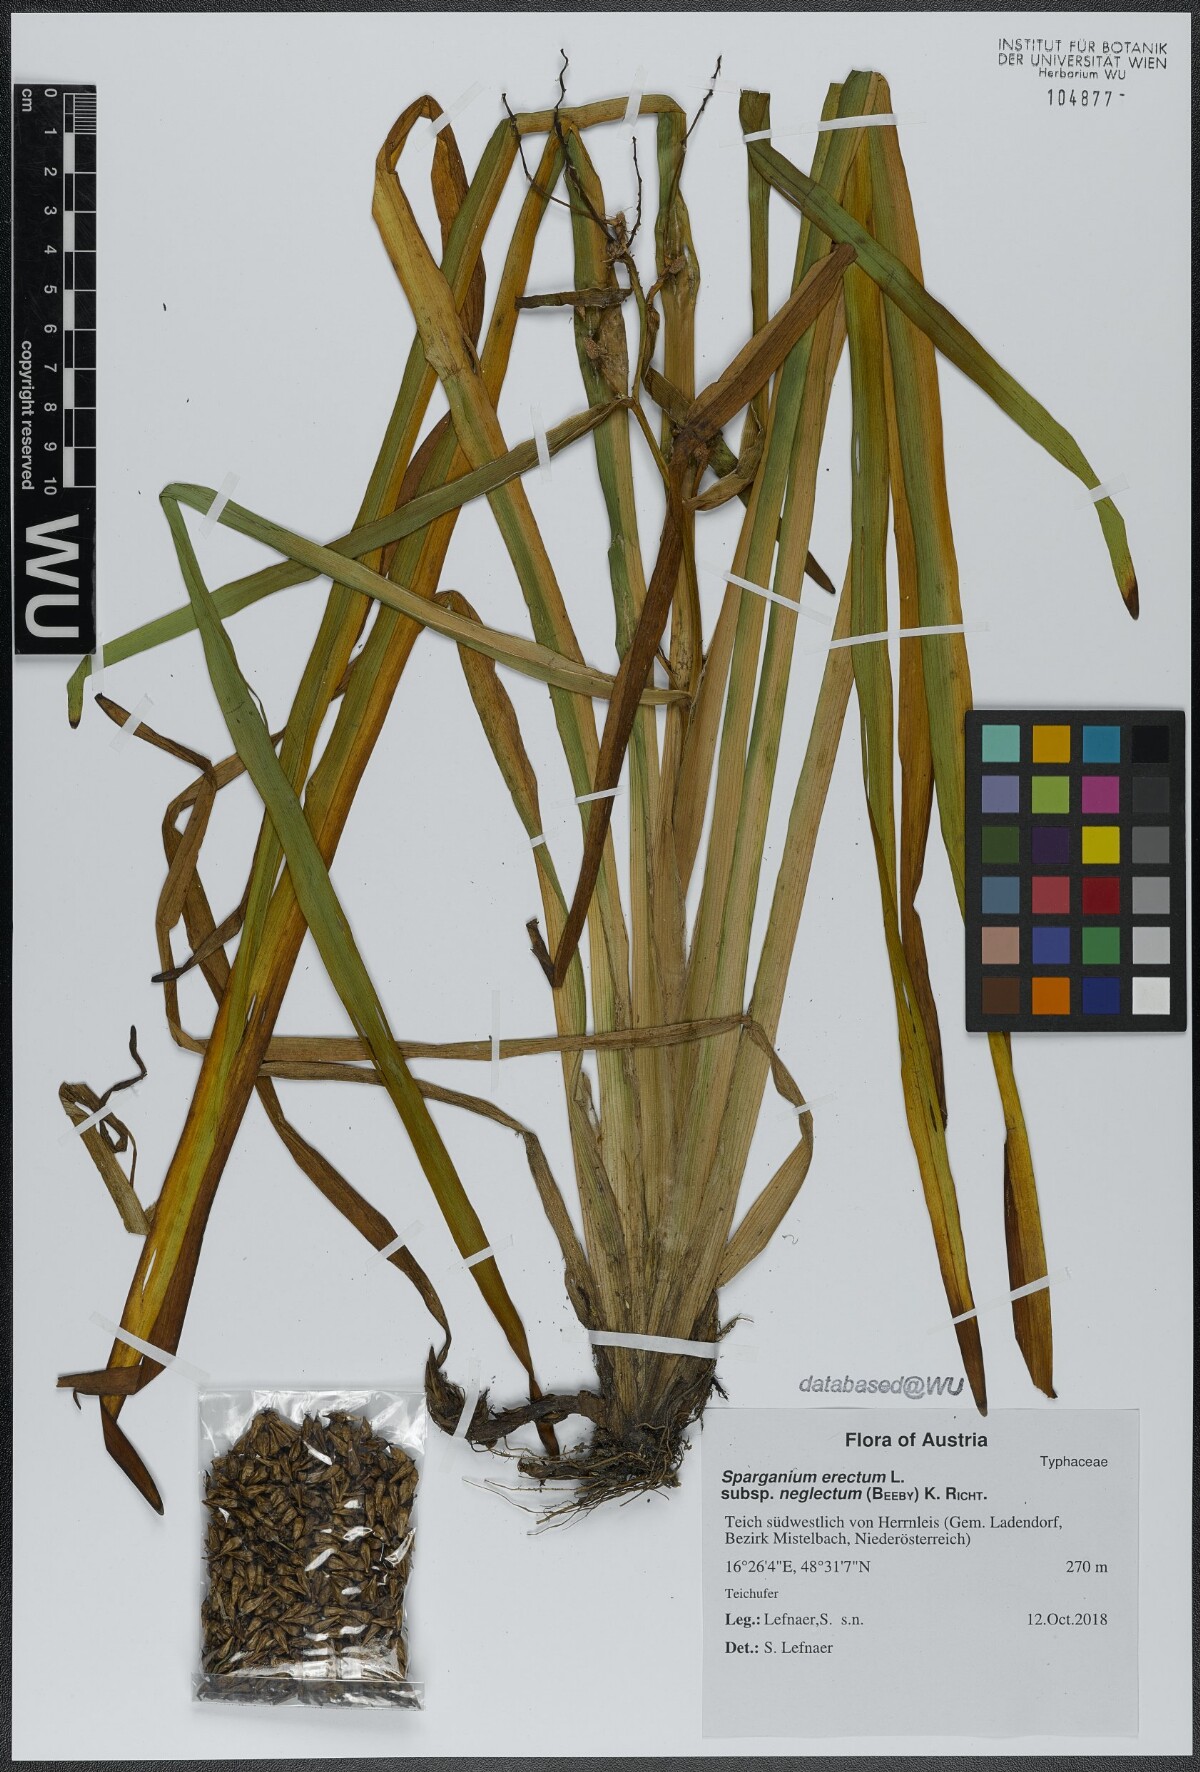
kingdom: Plantae
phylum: Tracheophyta
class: Liliopsida
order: Poales
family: Typhaceae
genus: Sparganium
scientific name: Sparganium erectum
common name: Branched bur-reed
